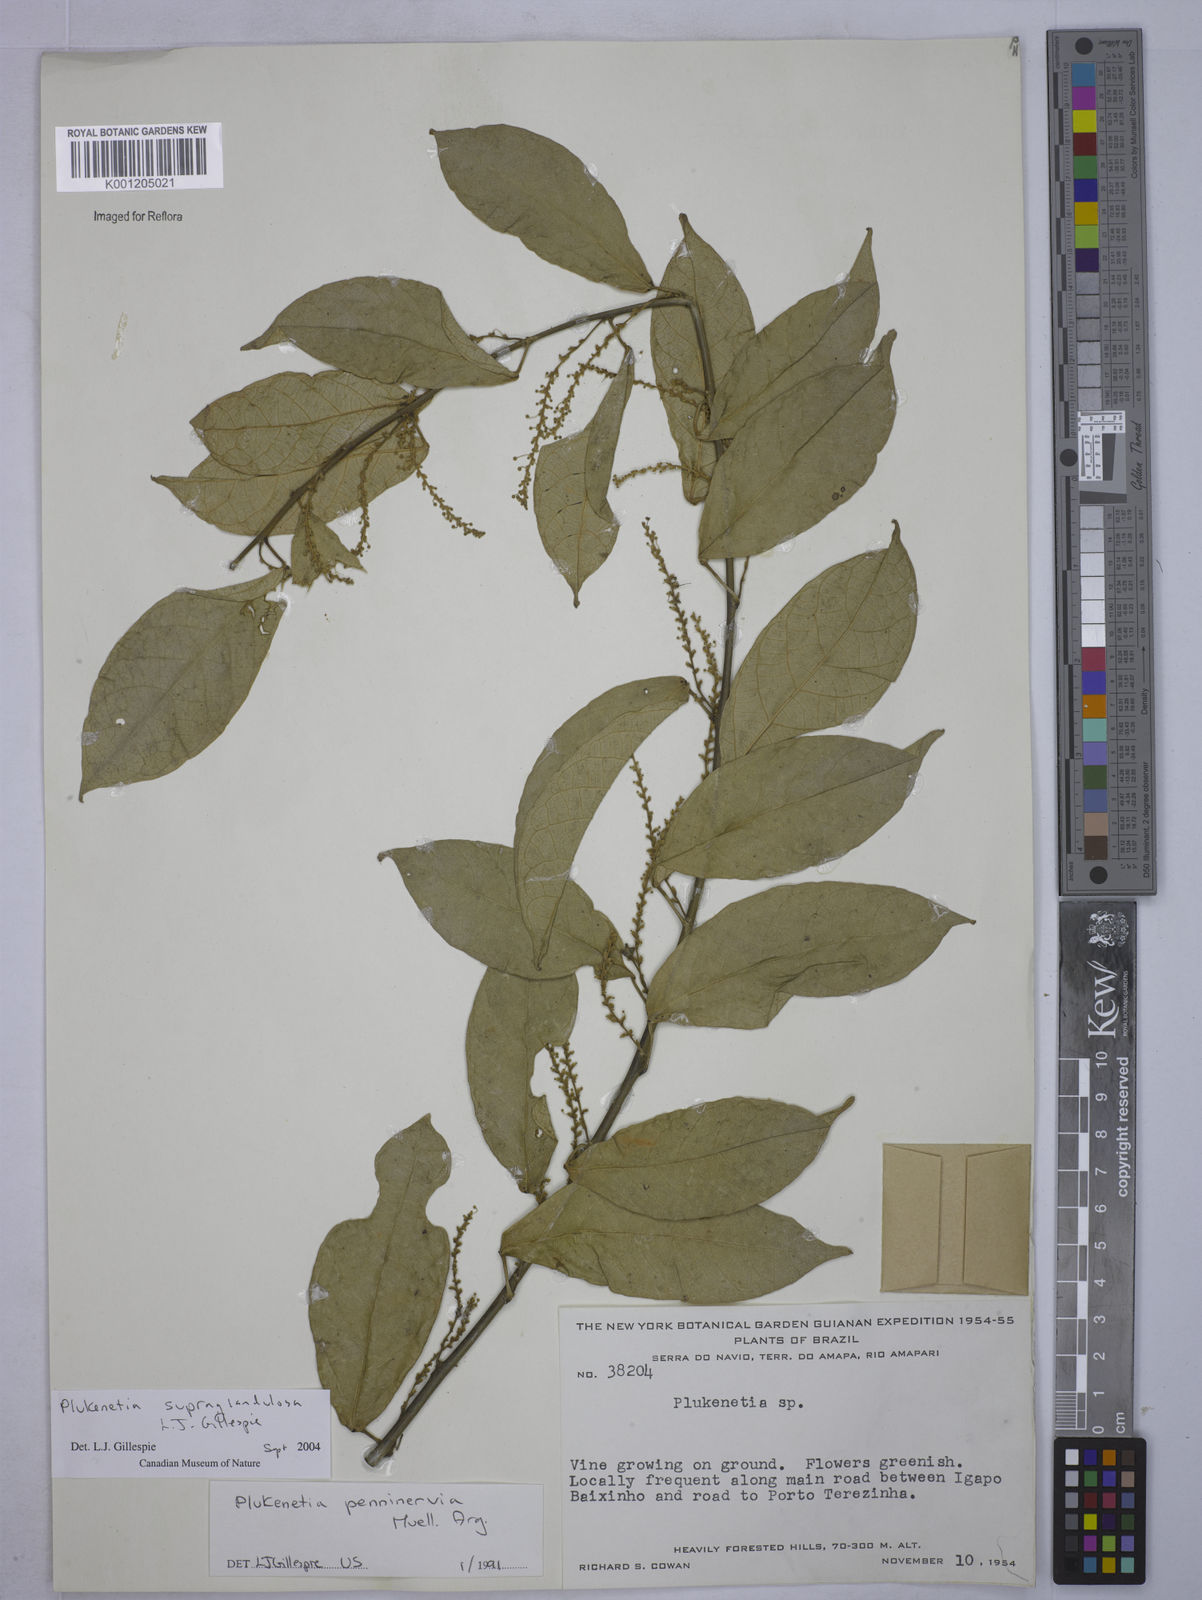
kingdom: Plantae
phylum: Tracheophyta
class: Magnoliopsida
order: Malpighiales
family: Euphorbiaceae
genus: Plukenetia
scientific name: Plukenetia supraglandulosa
